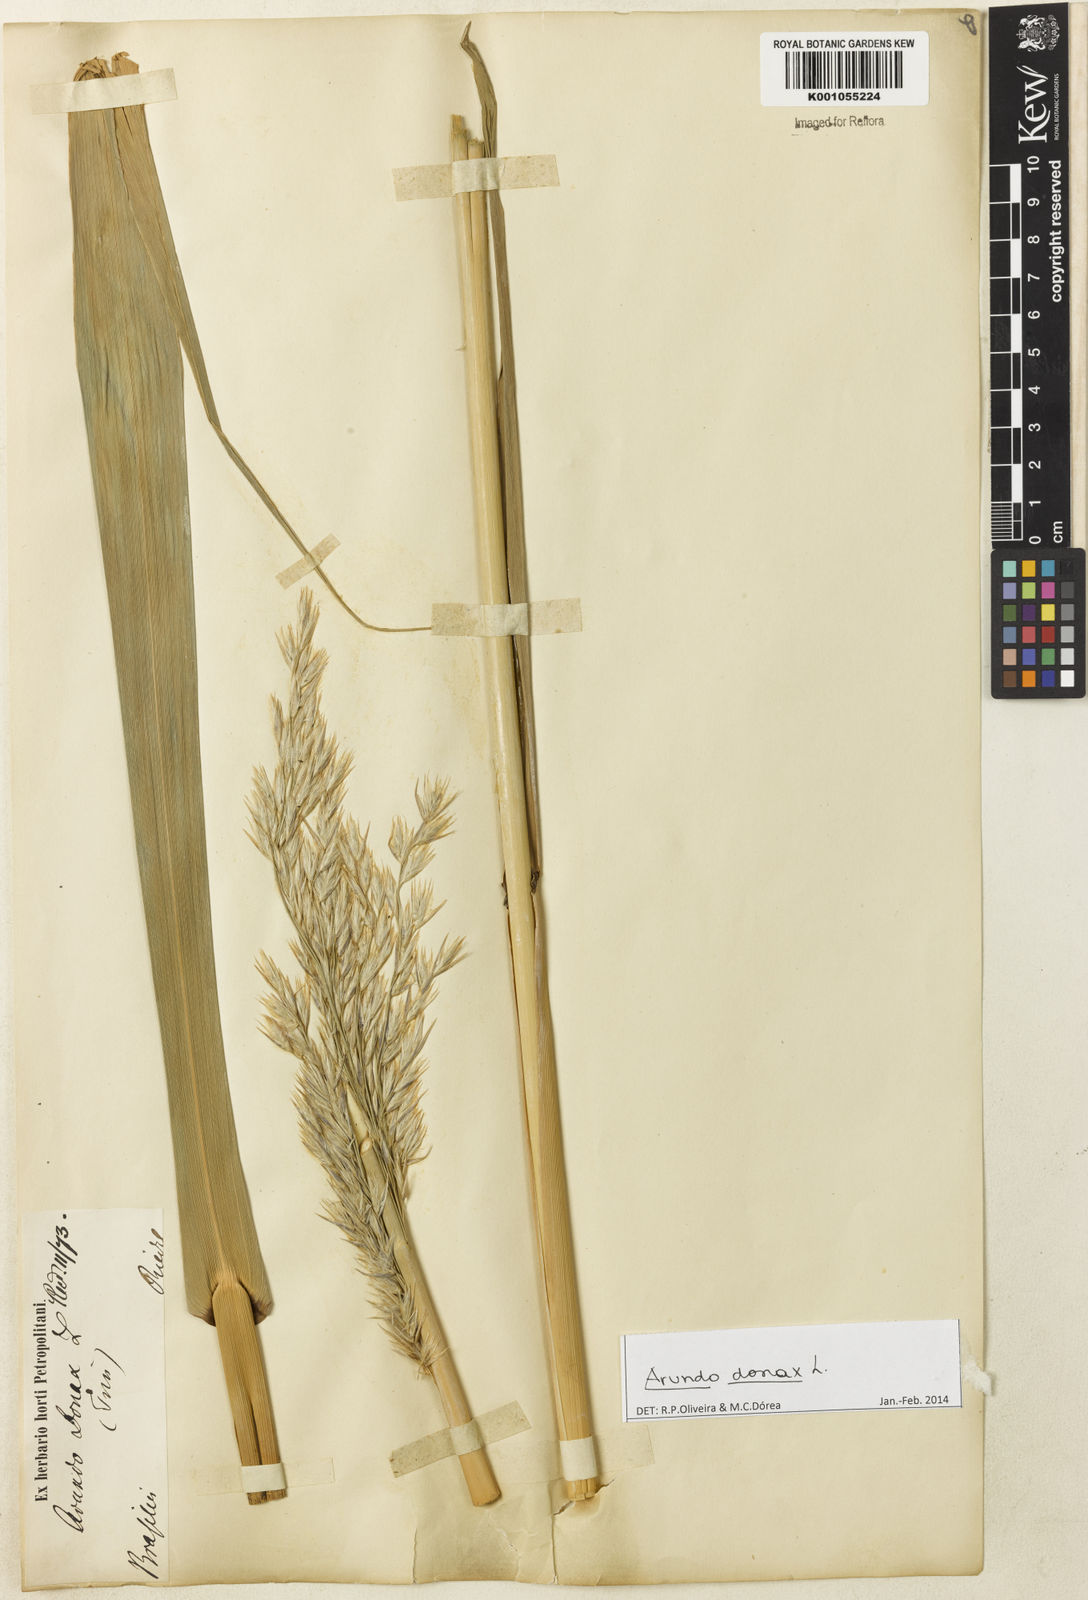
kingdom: Plantae
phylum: Tracheophyta
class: Liliopsida
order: Poales
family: Poaceae
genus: Arundo
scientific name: Arundo donax
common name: Giant reed
